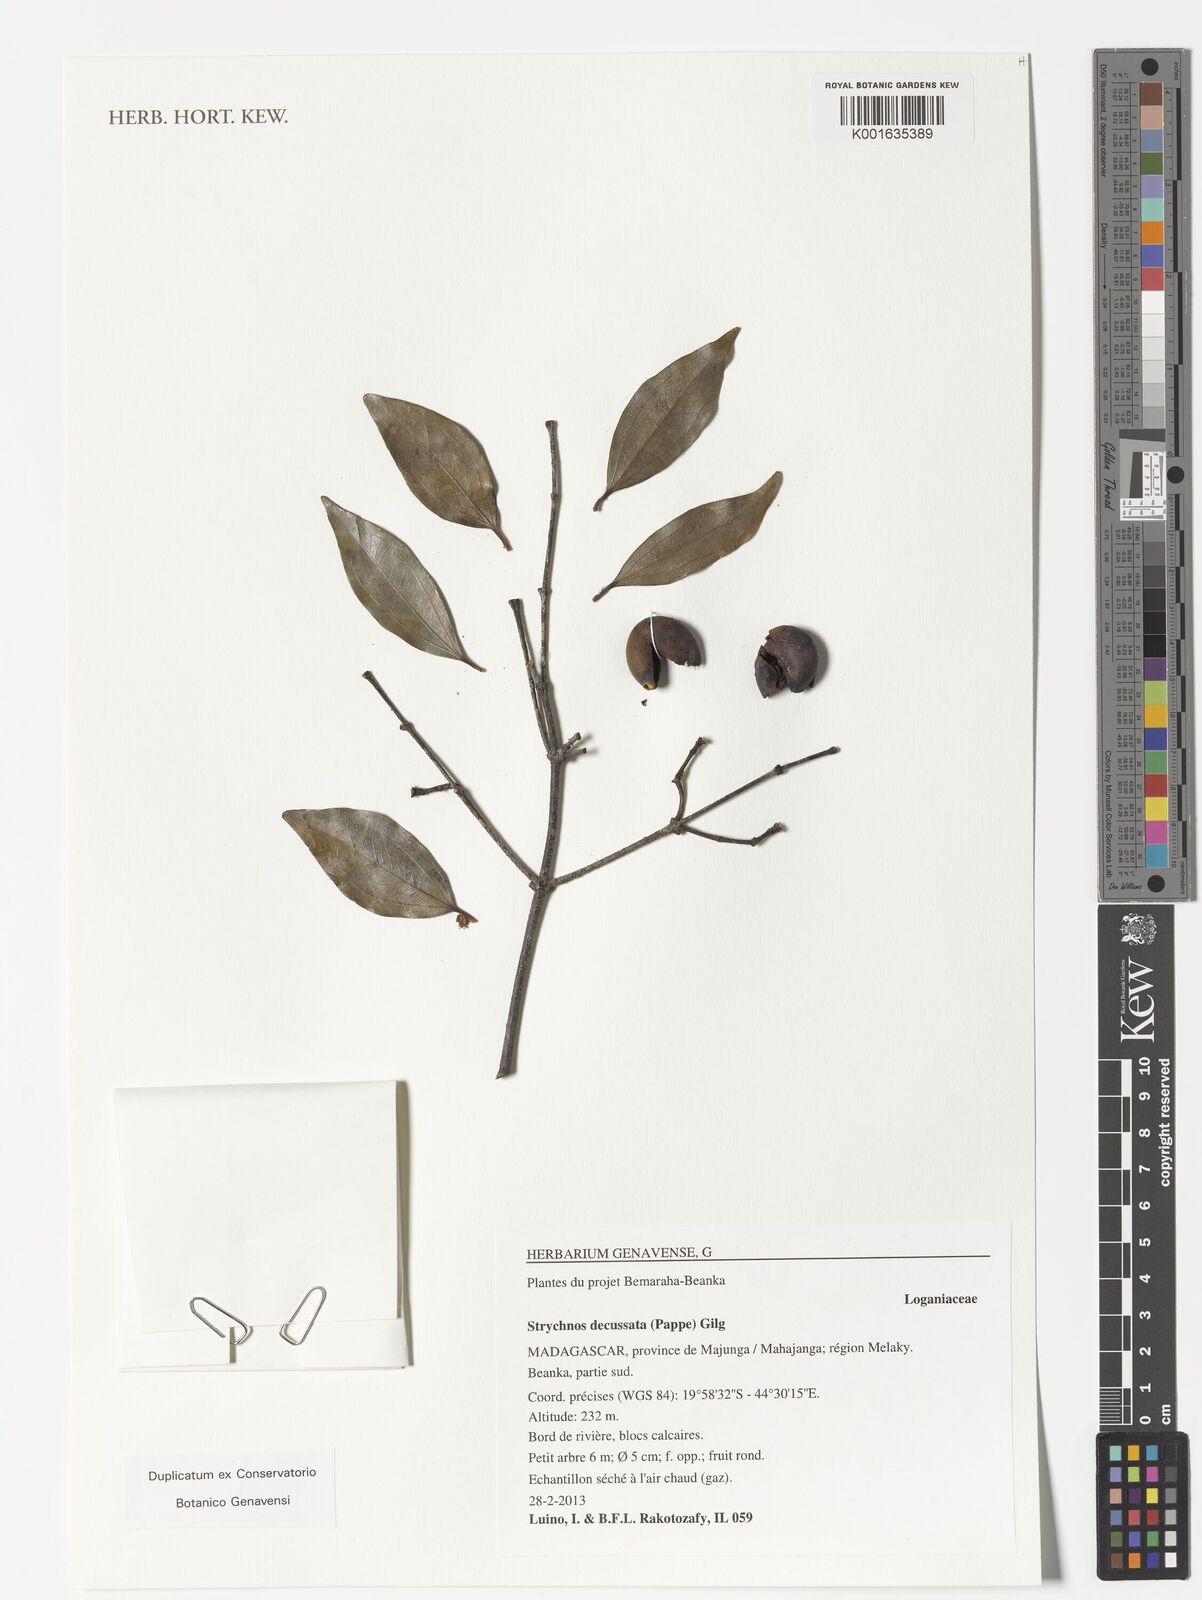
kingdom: Plantae
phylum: Tracheophyta
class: Magnoliopsida
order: Gentianales
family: Loganiaceae
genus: Strychnos
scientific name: Strychnos decussata
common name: Cape teak
